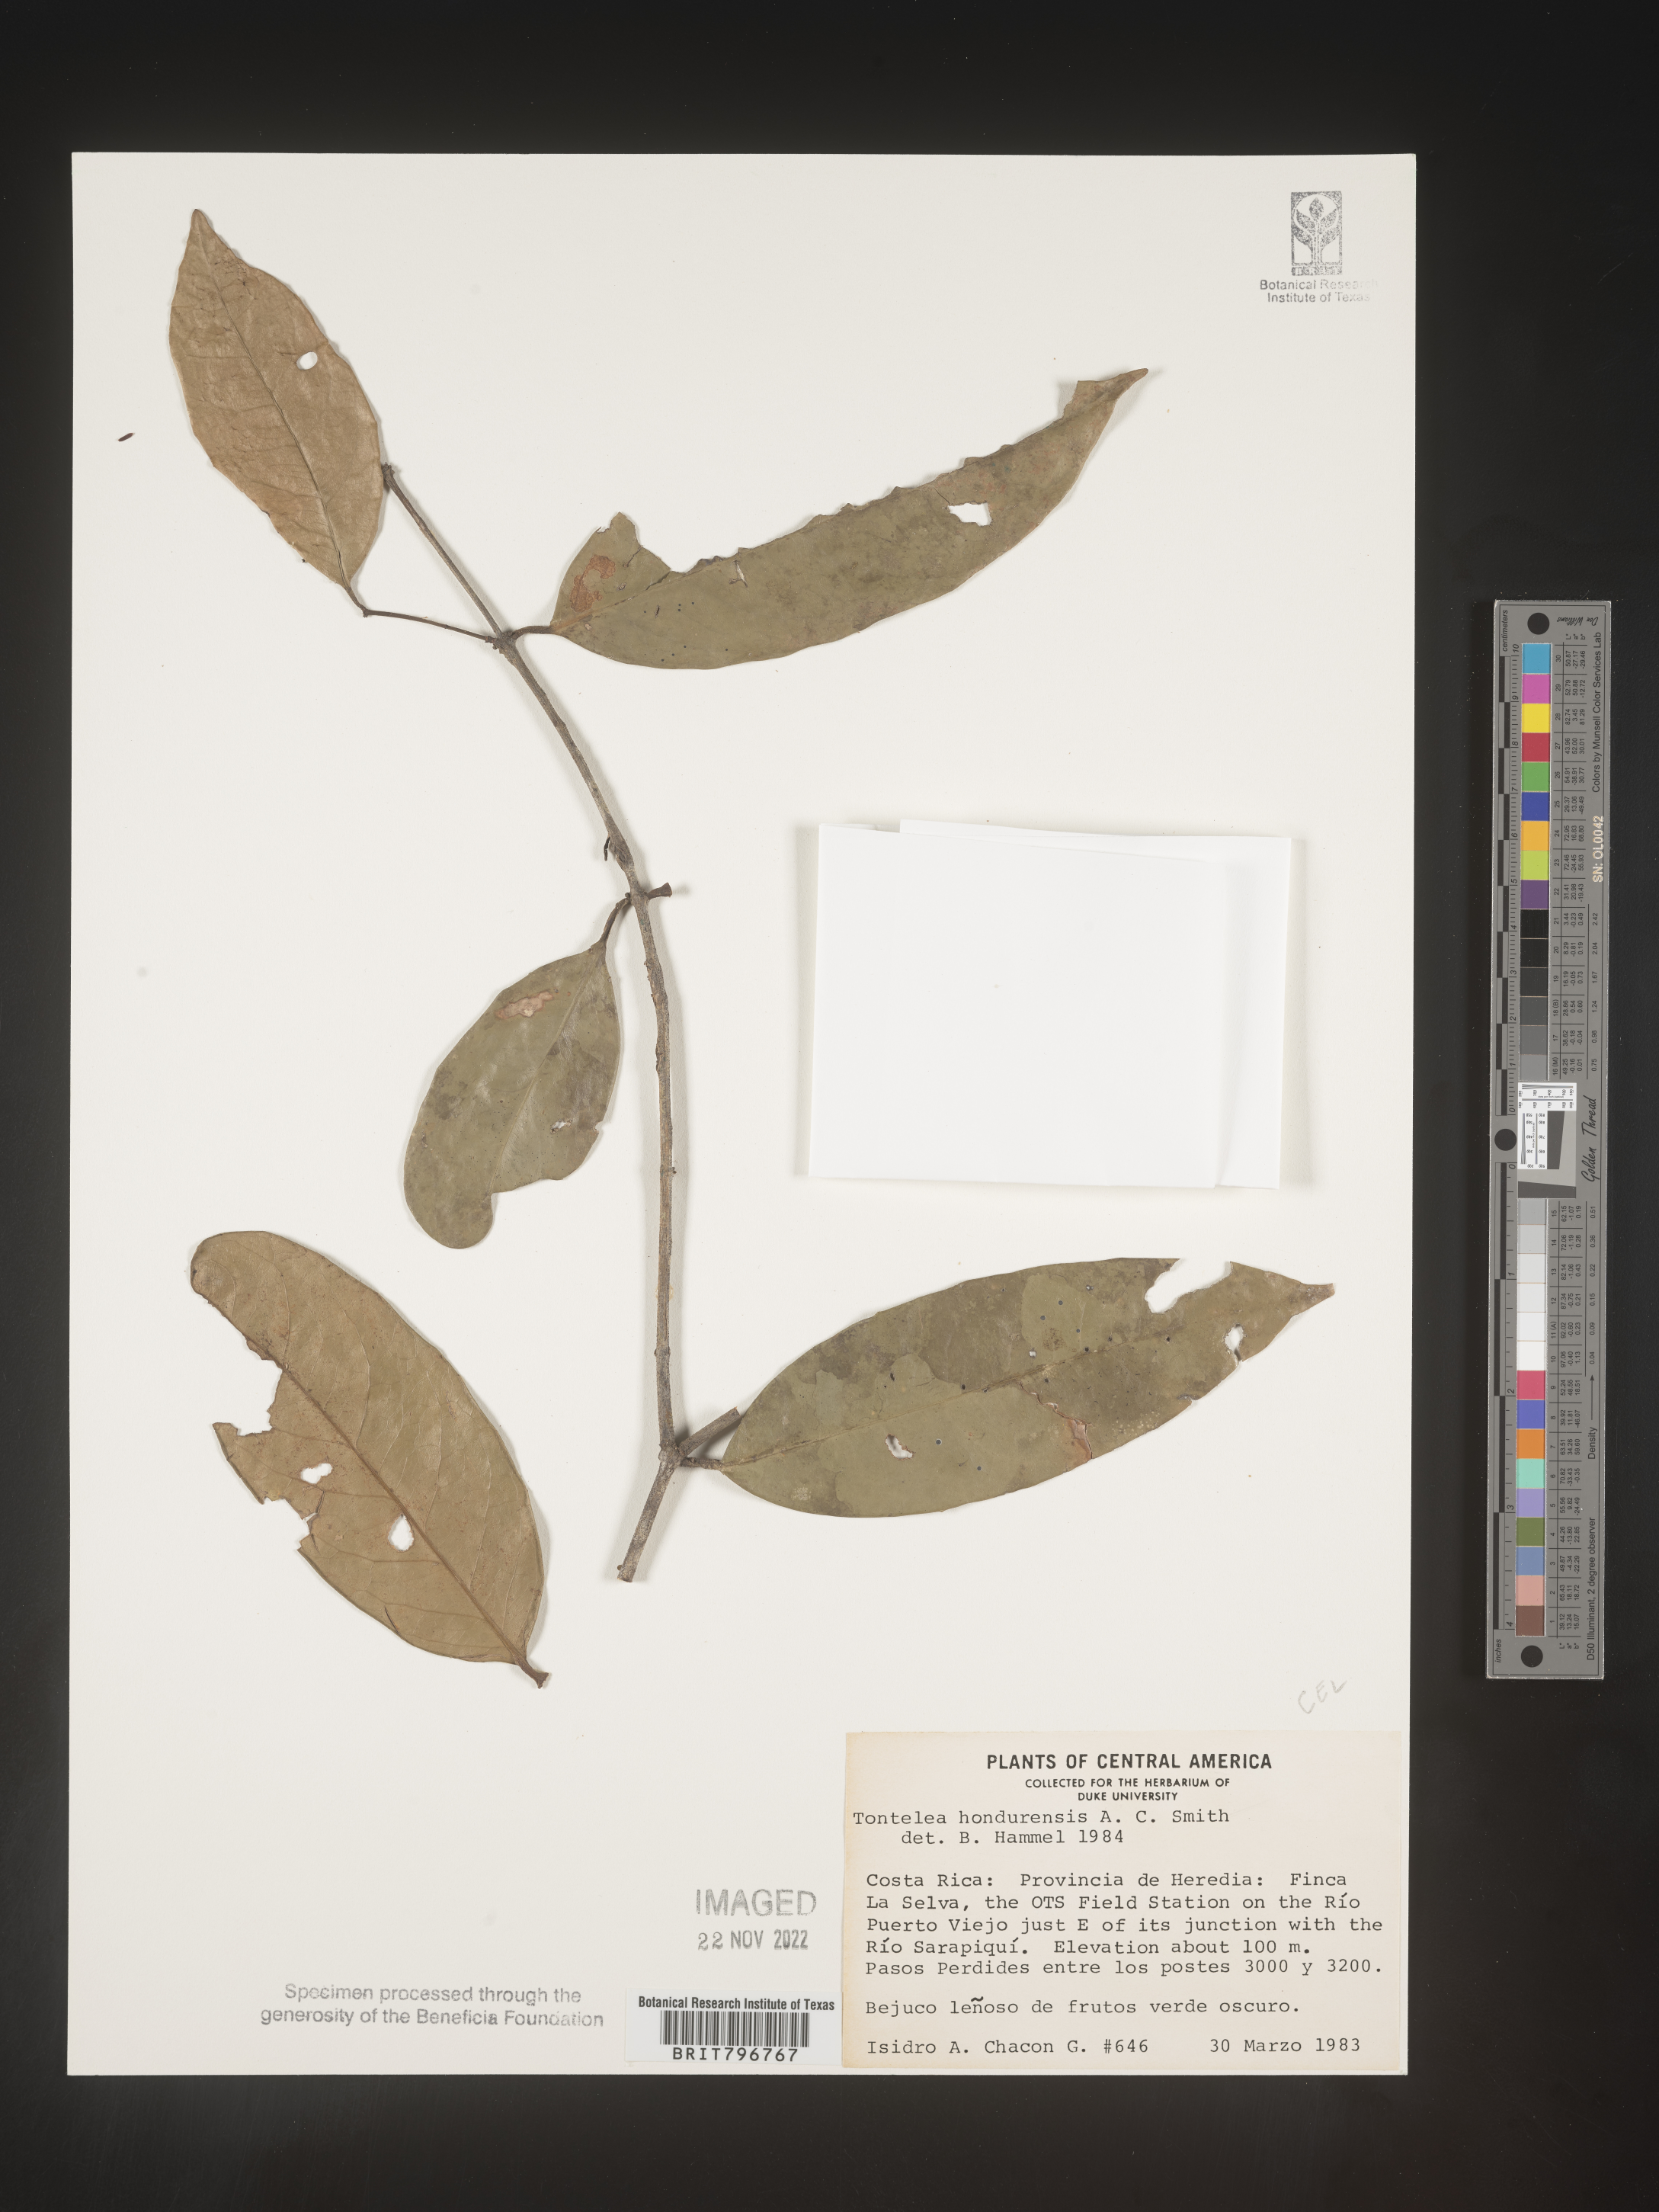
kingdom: Plantae
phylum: Tracheophyta
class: Magnoliopsida
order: Celastrales
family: Celastraceae
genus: Tontelea
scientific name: Tontelea
